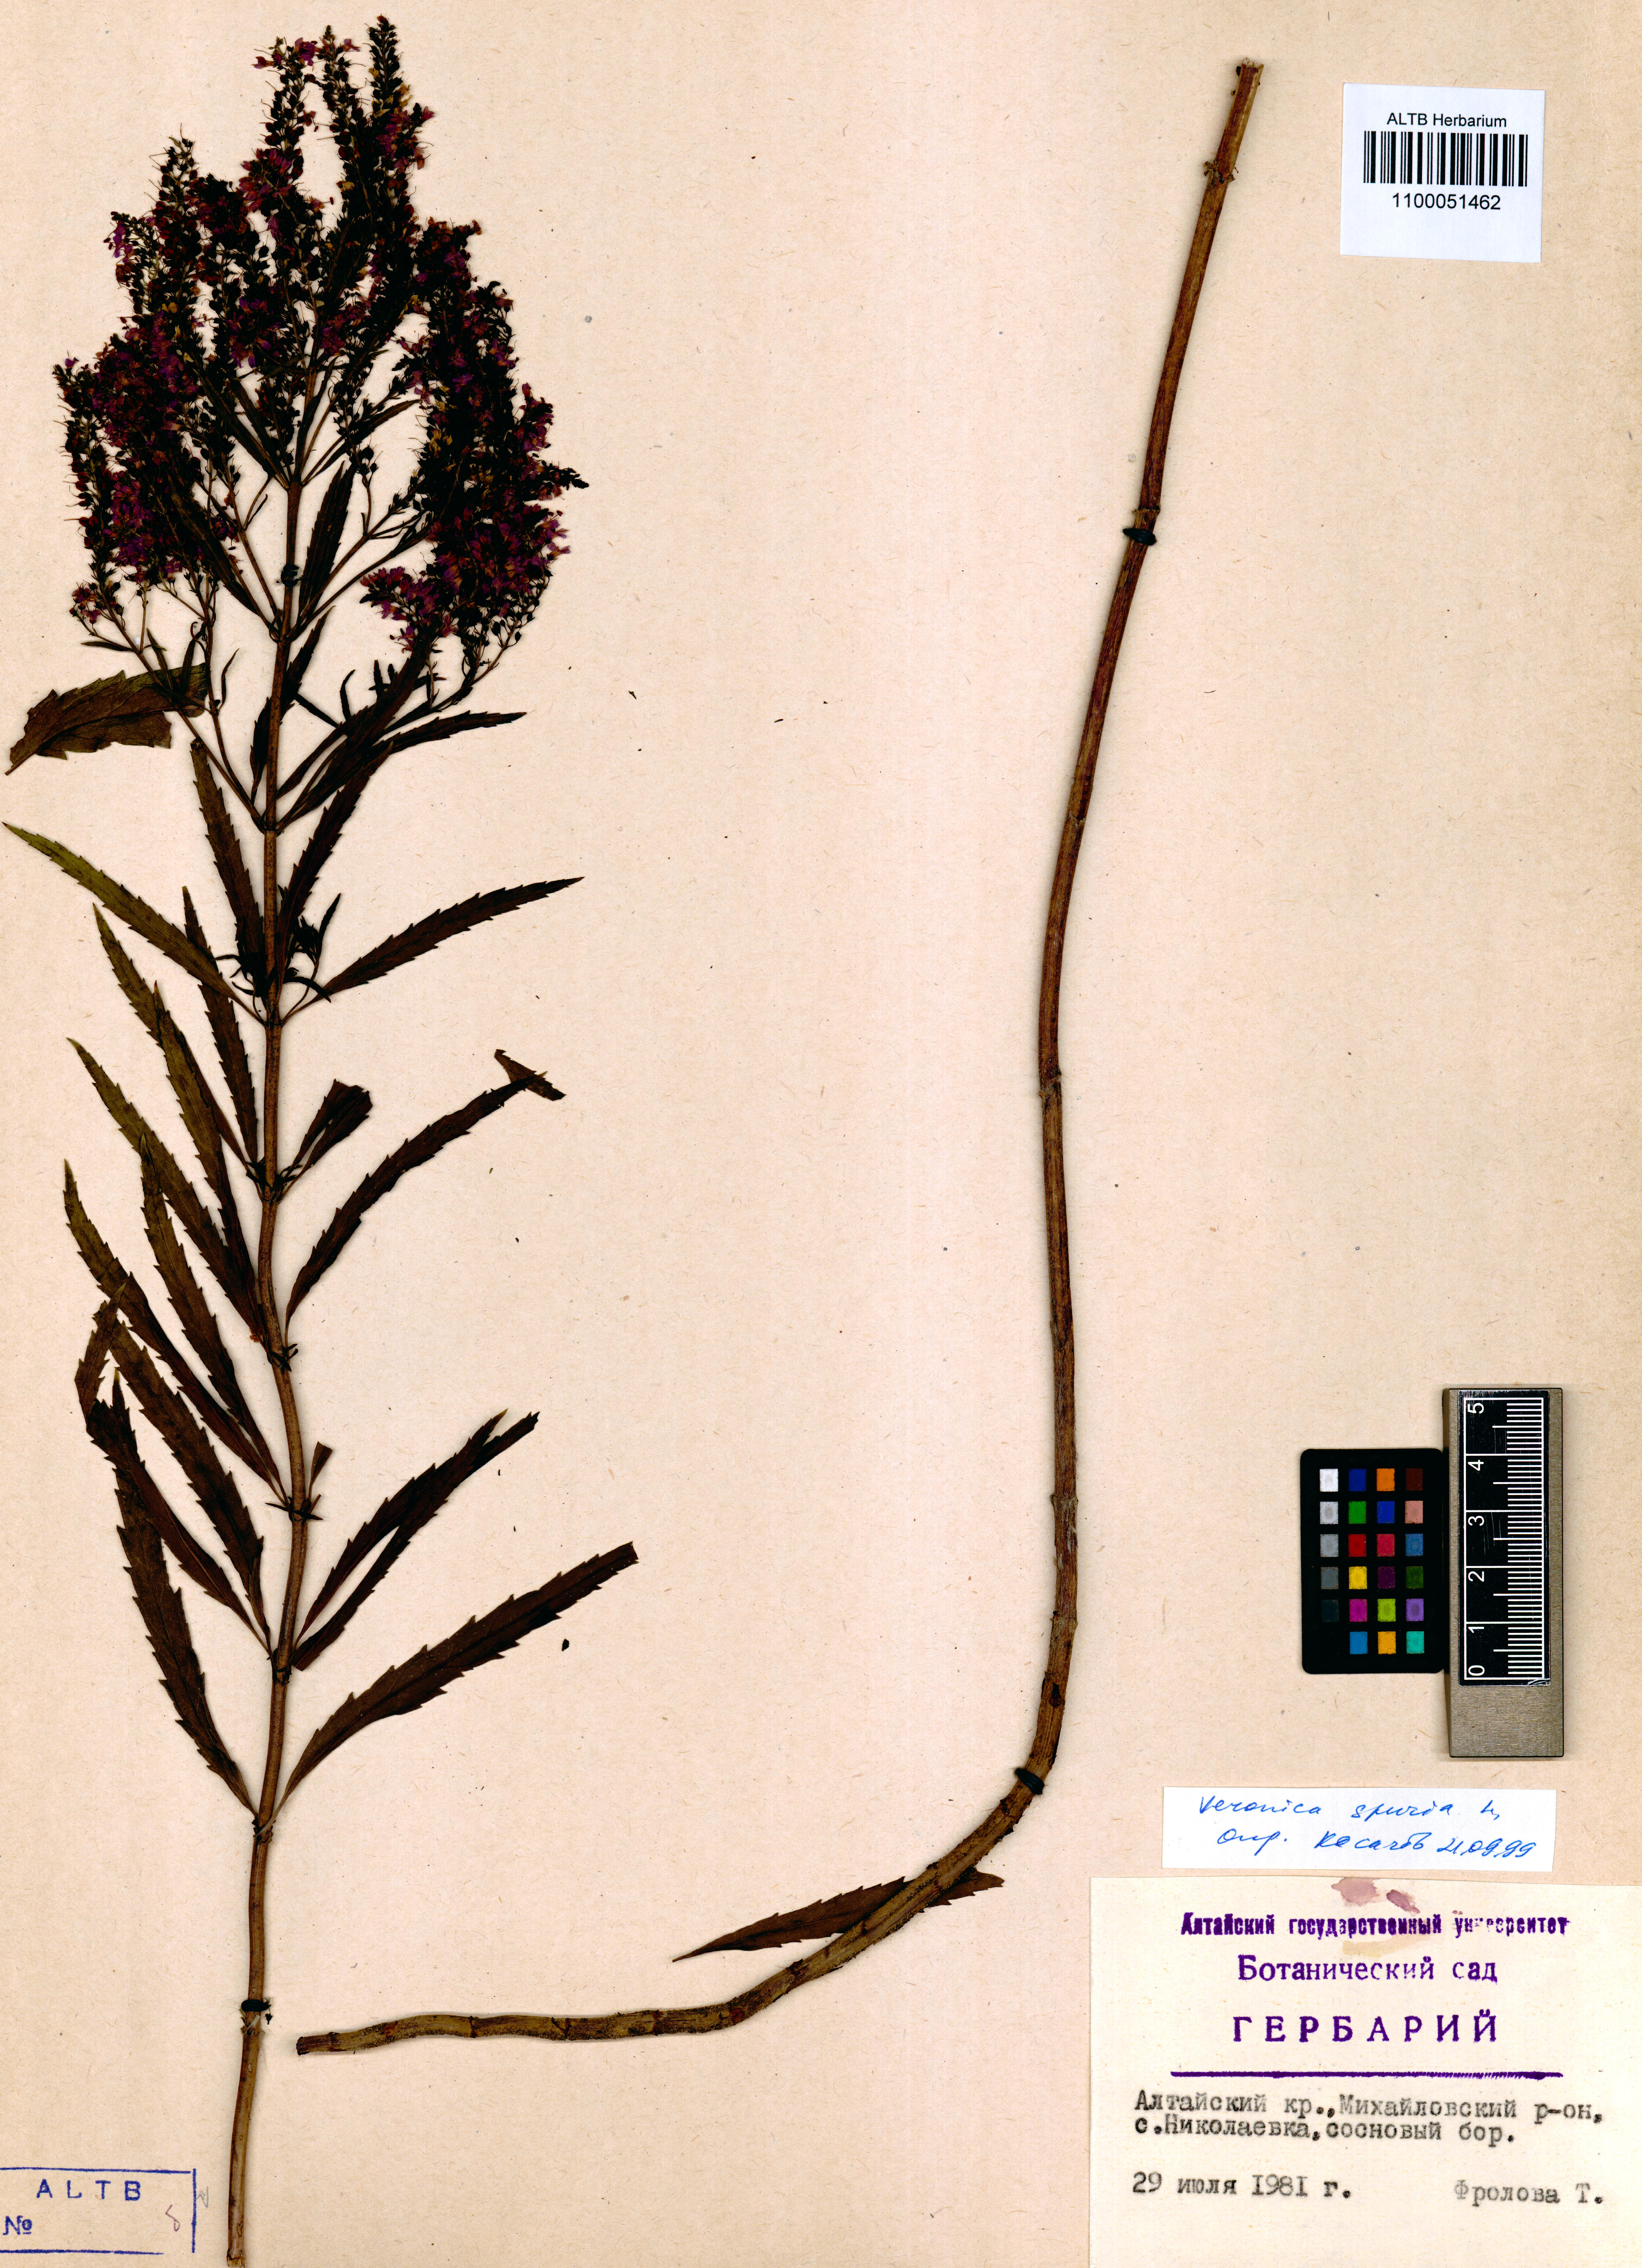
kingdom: Plantae
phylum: Tracheophyta
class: Magnoliopsida
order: Lamiales
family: Plantaginaceae
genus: Veronica
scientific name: Veronica spuria
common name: Bastard speedwell
